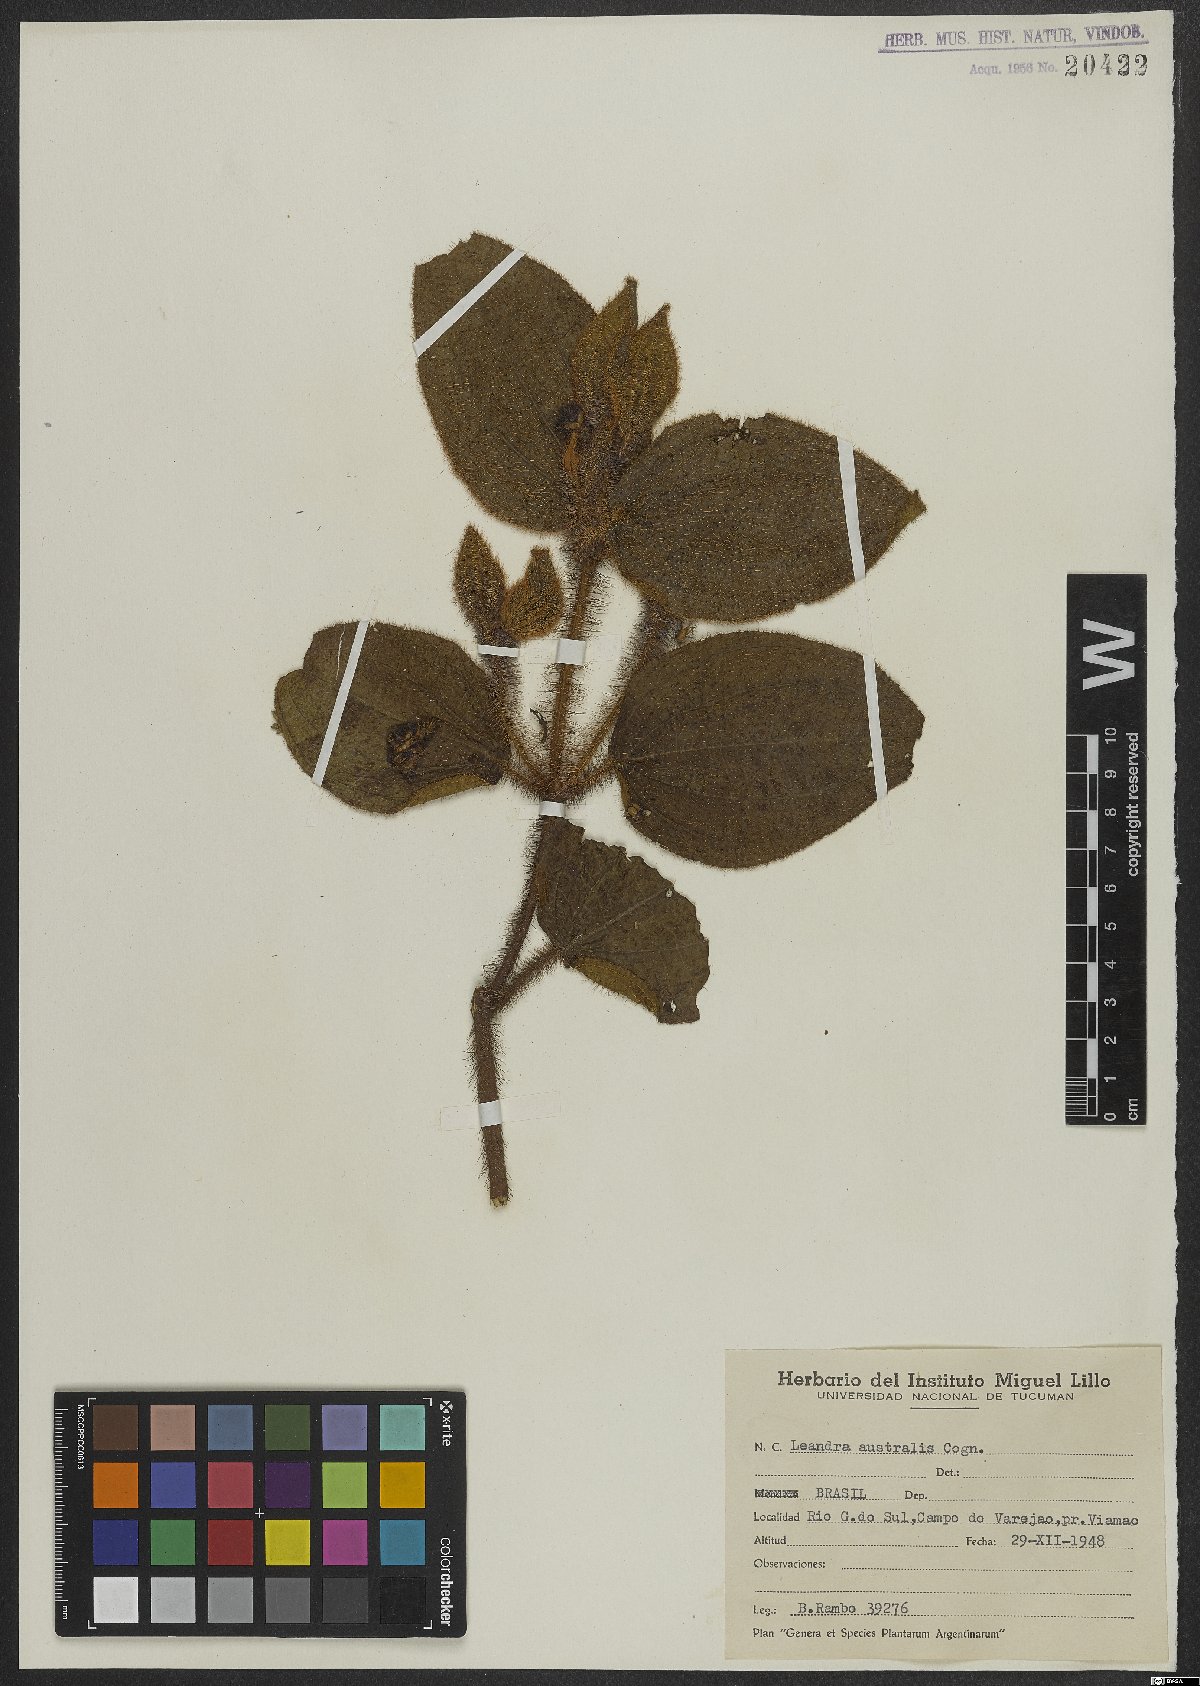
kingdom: Plantae
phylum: Tracheophyta
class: Magnoliopsida
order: Myrtales
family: Melastomataceae
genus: Miconia
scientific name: Miconia australis
